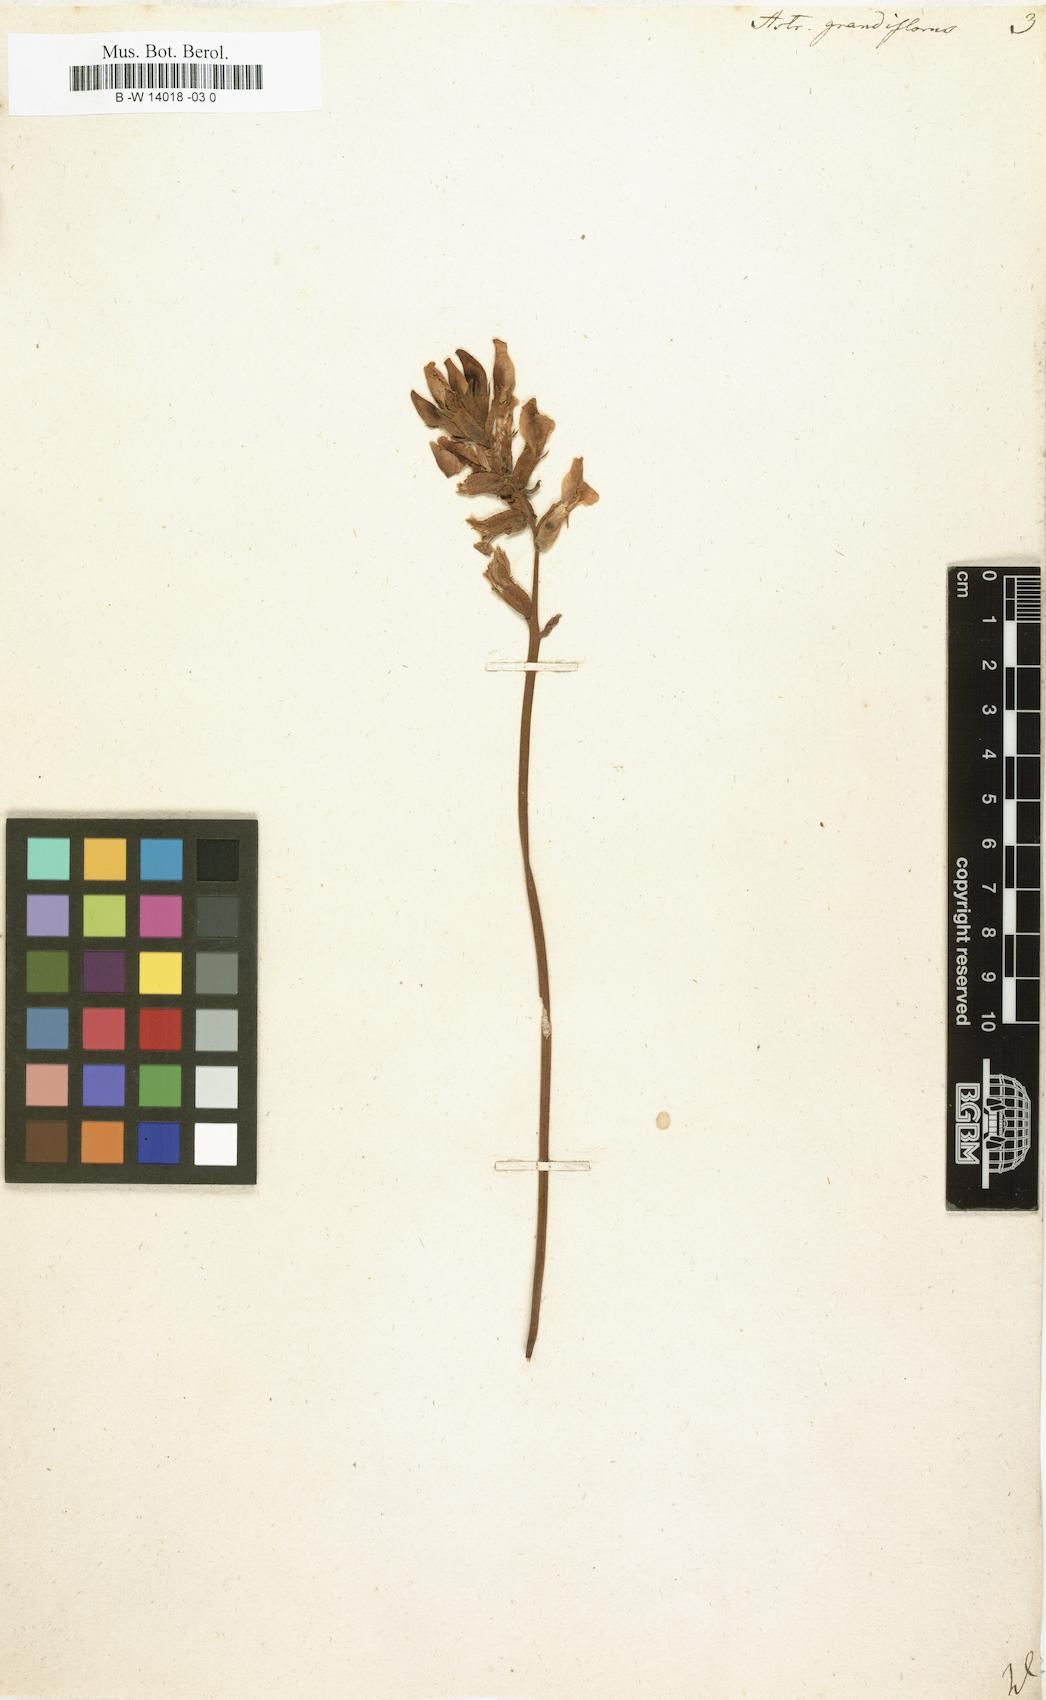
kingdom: Plantae
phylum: Tracheophyta
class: Magnoliopsida
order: Fabales
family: Fabaceae
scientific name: Fabaceae
